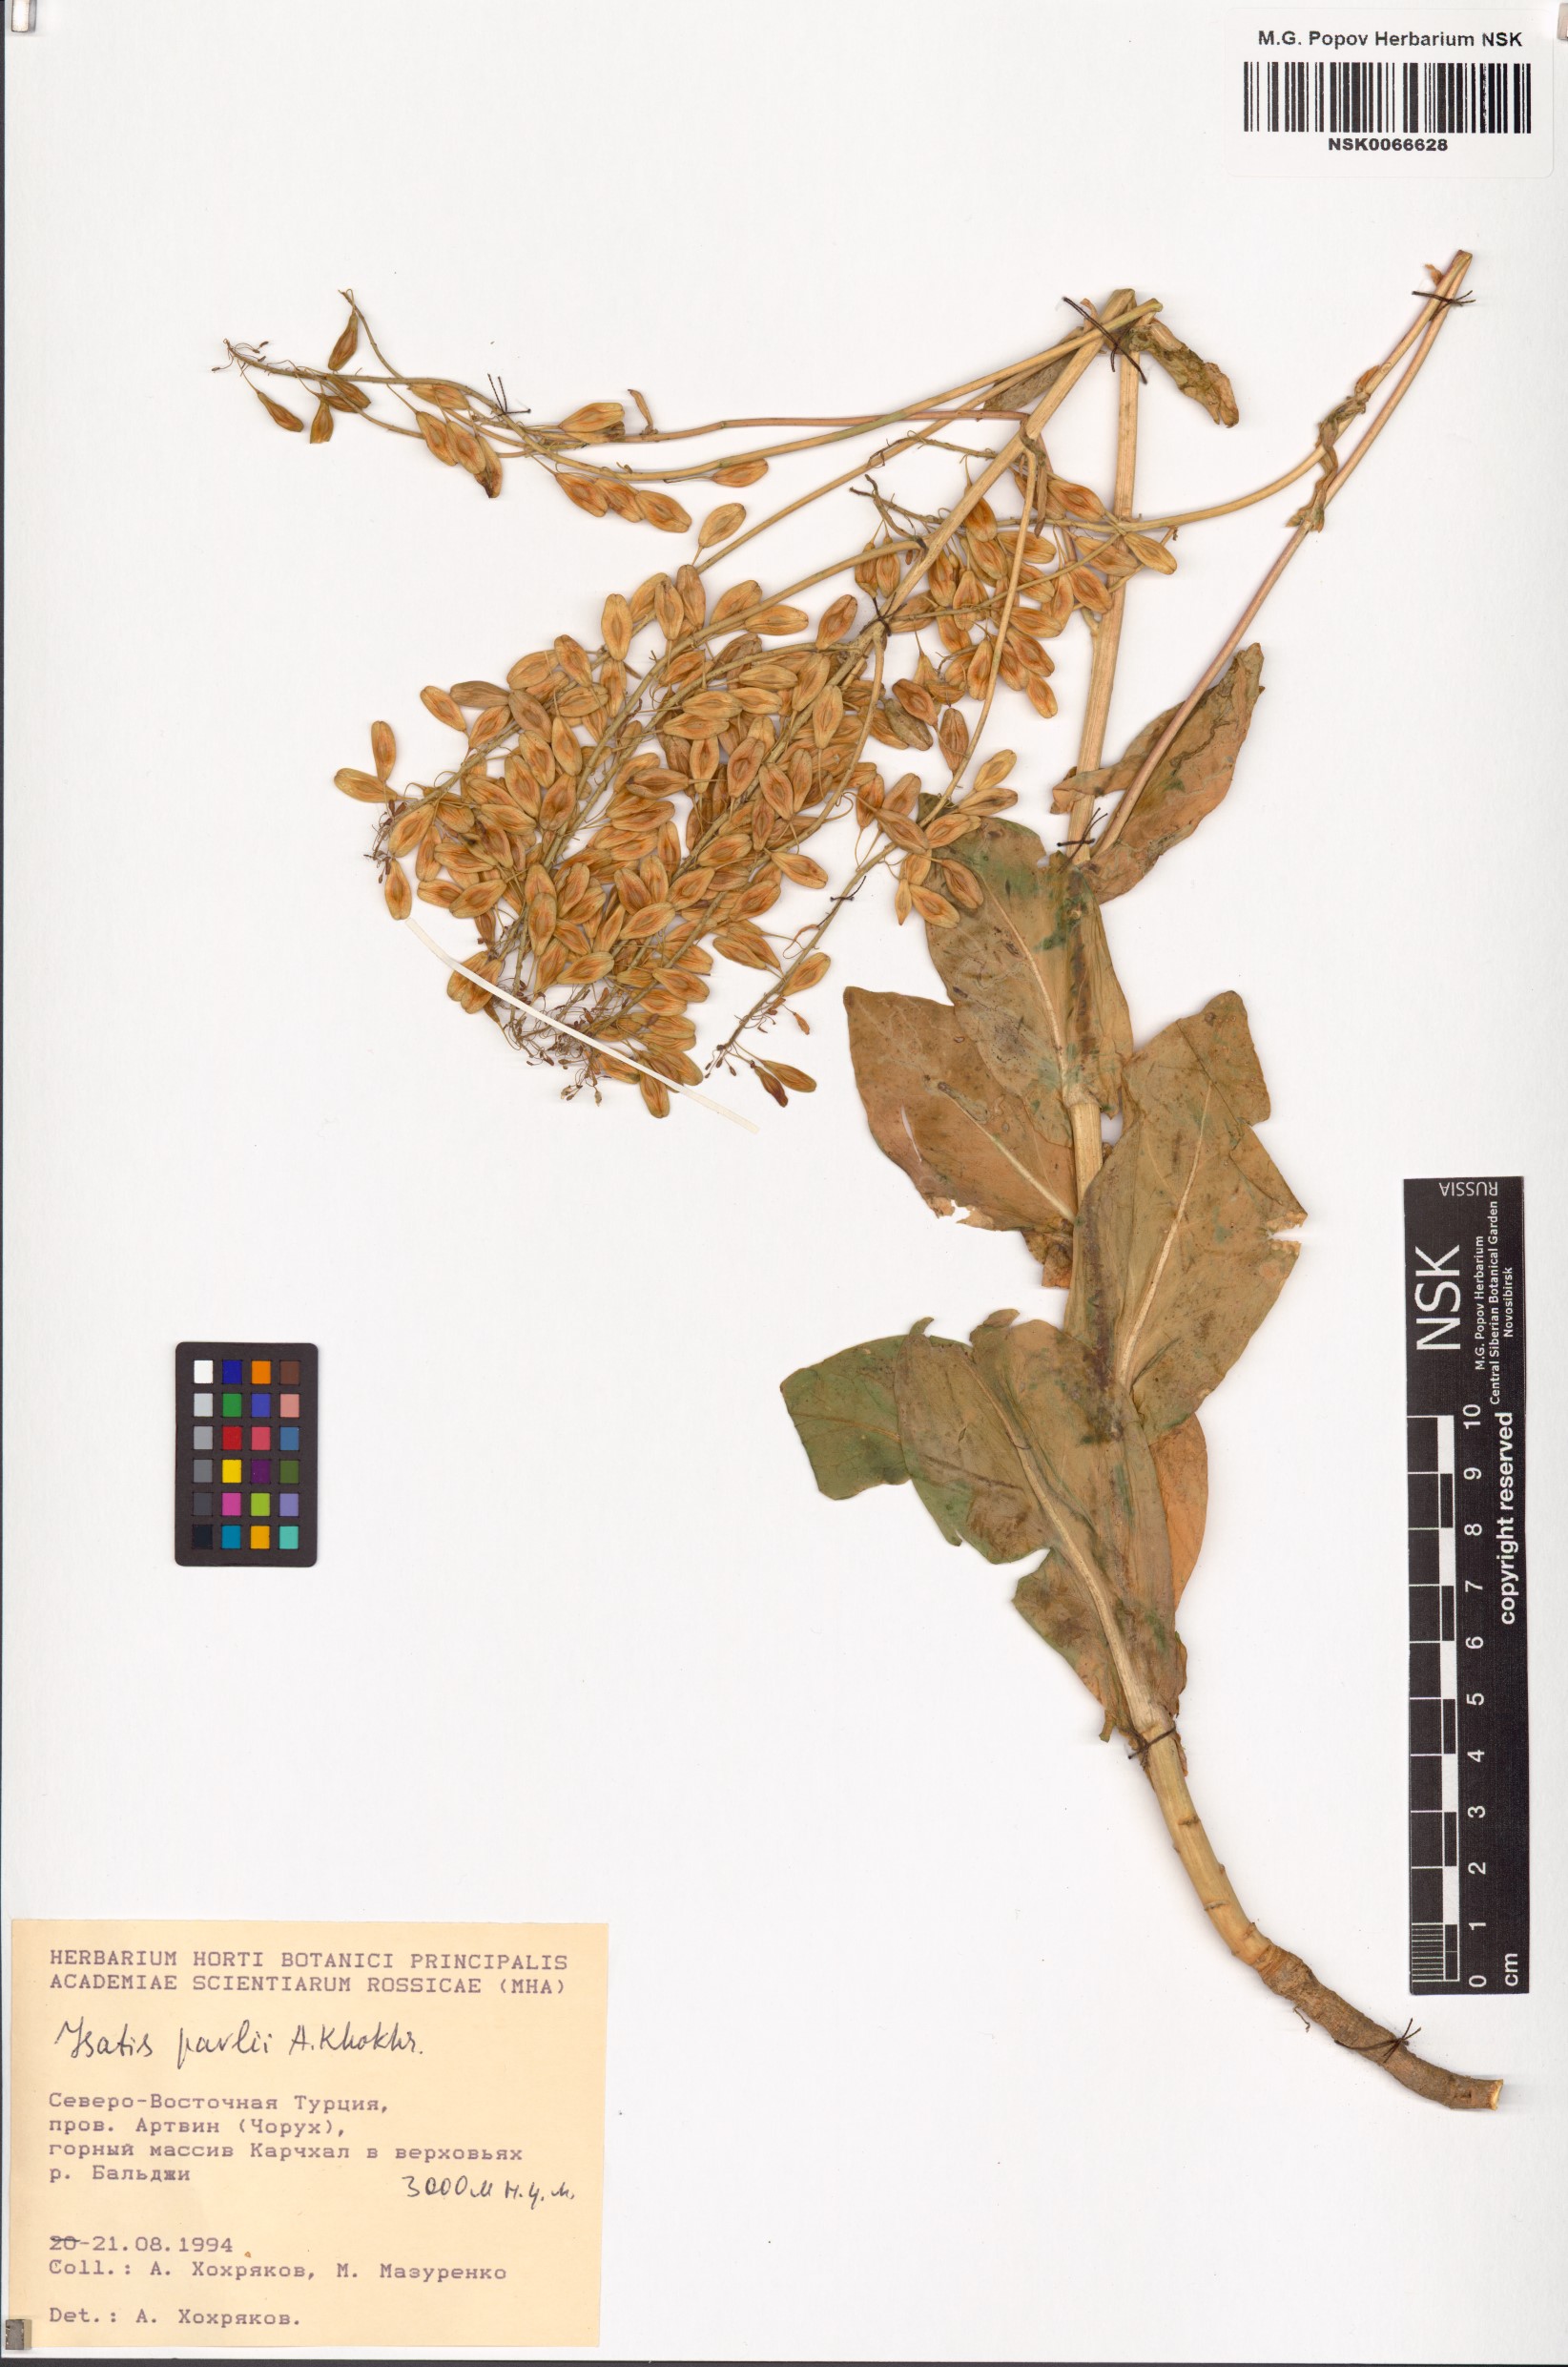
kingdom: Plantae
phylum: Tracheophyta
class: Magnoliopsida
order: Brassicales
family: Brassicaceae
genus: Isatis
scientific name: Isatis pavlii
